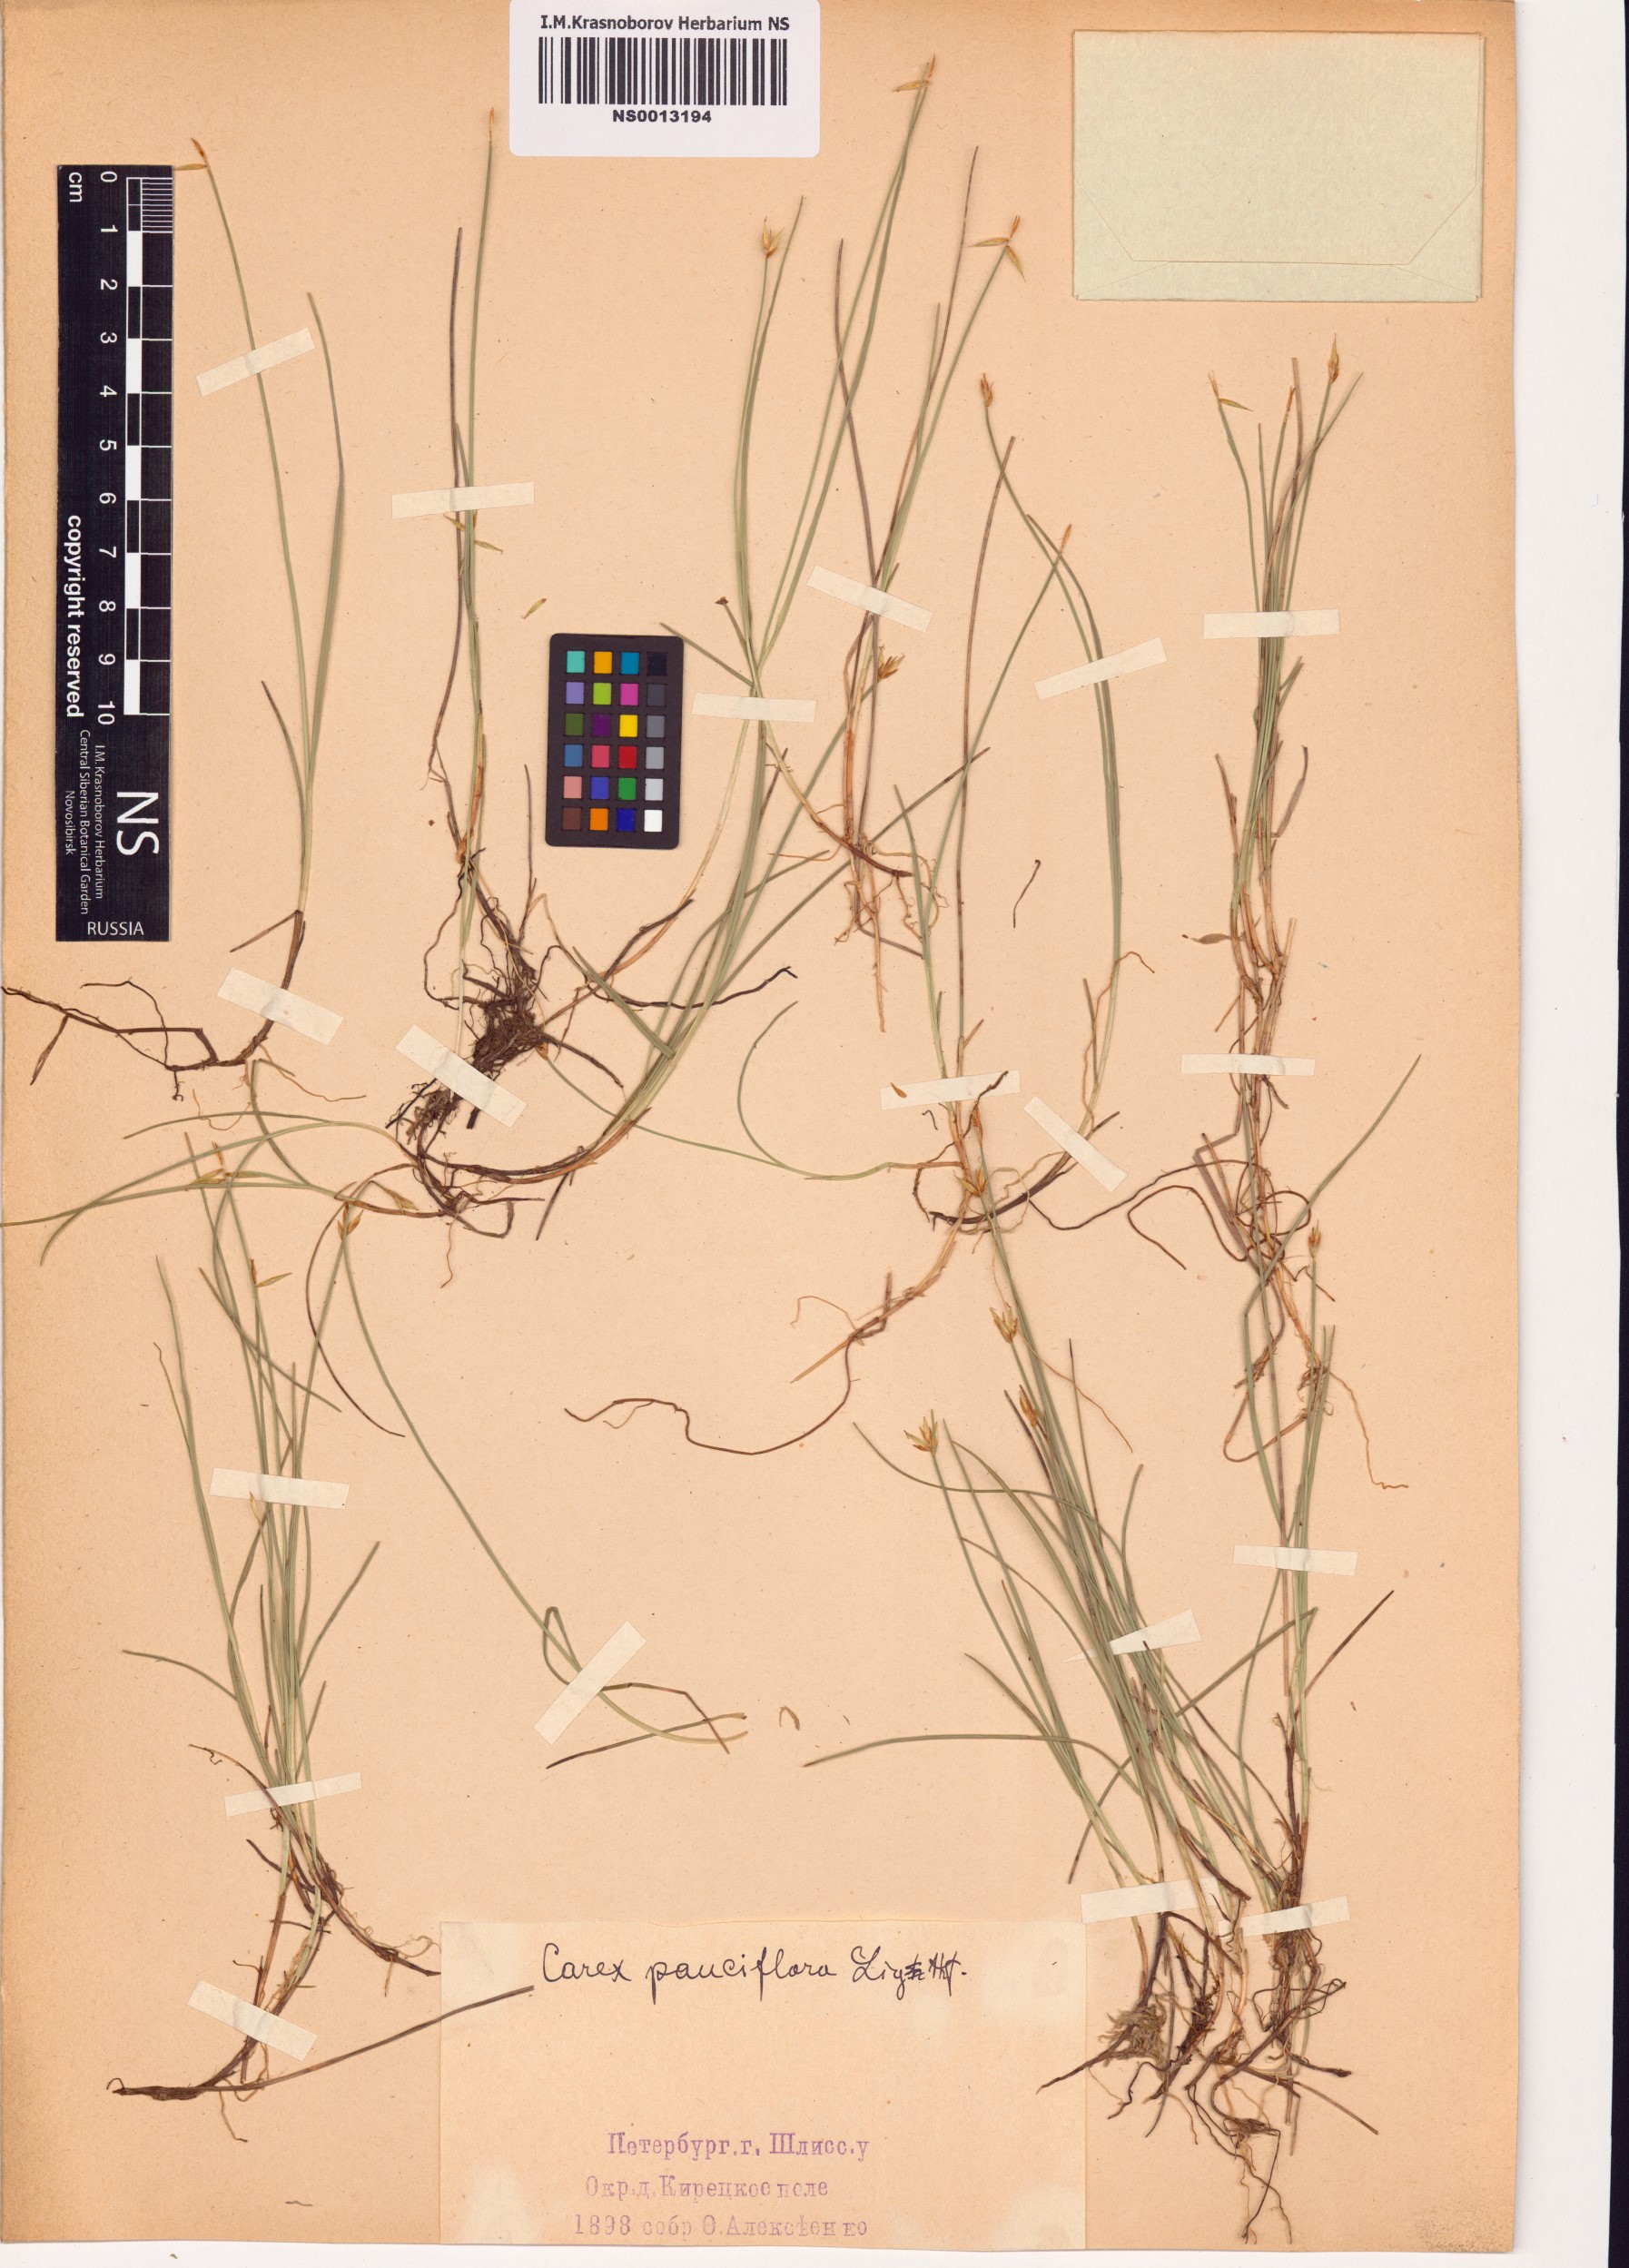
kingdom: Plantae
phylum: Tracheophyta
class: Liliopsida
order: Poales
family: Cyperaceae
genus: Carex
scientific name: Carex pauciflora
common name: Few-flowered sedge
